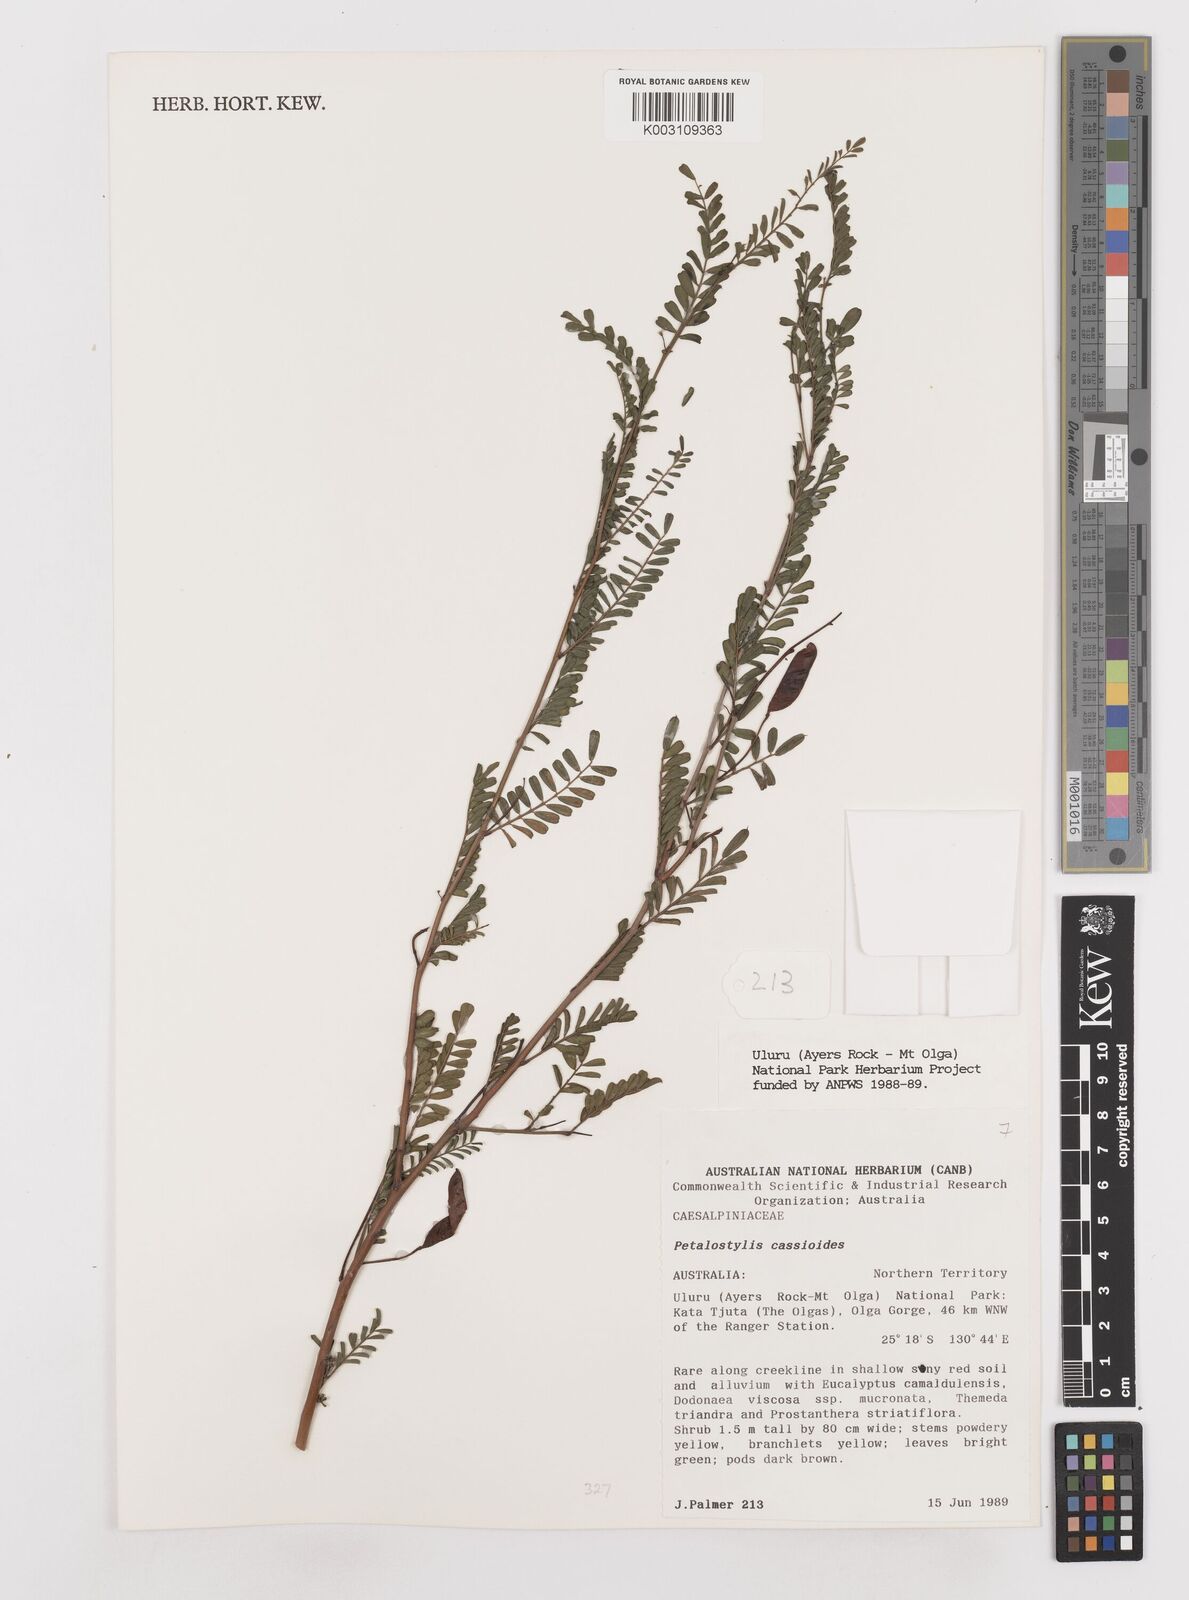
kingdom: Plantae
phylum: Tracheophyta
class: Magnoliopsida
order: Fabales
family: Fabaceae
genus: Petalostylis
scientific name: Petalostylis cassioides
